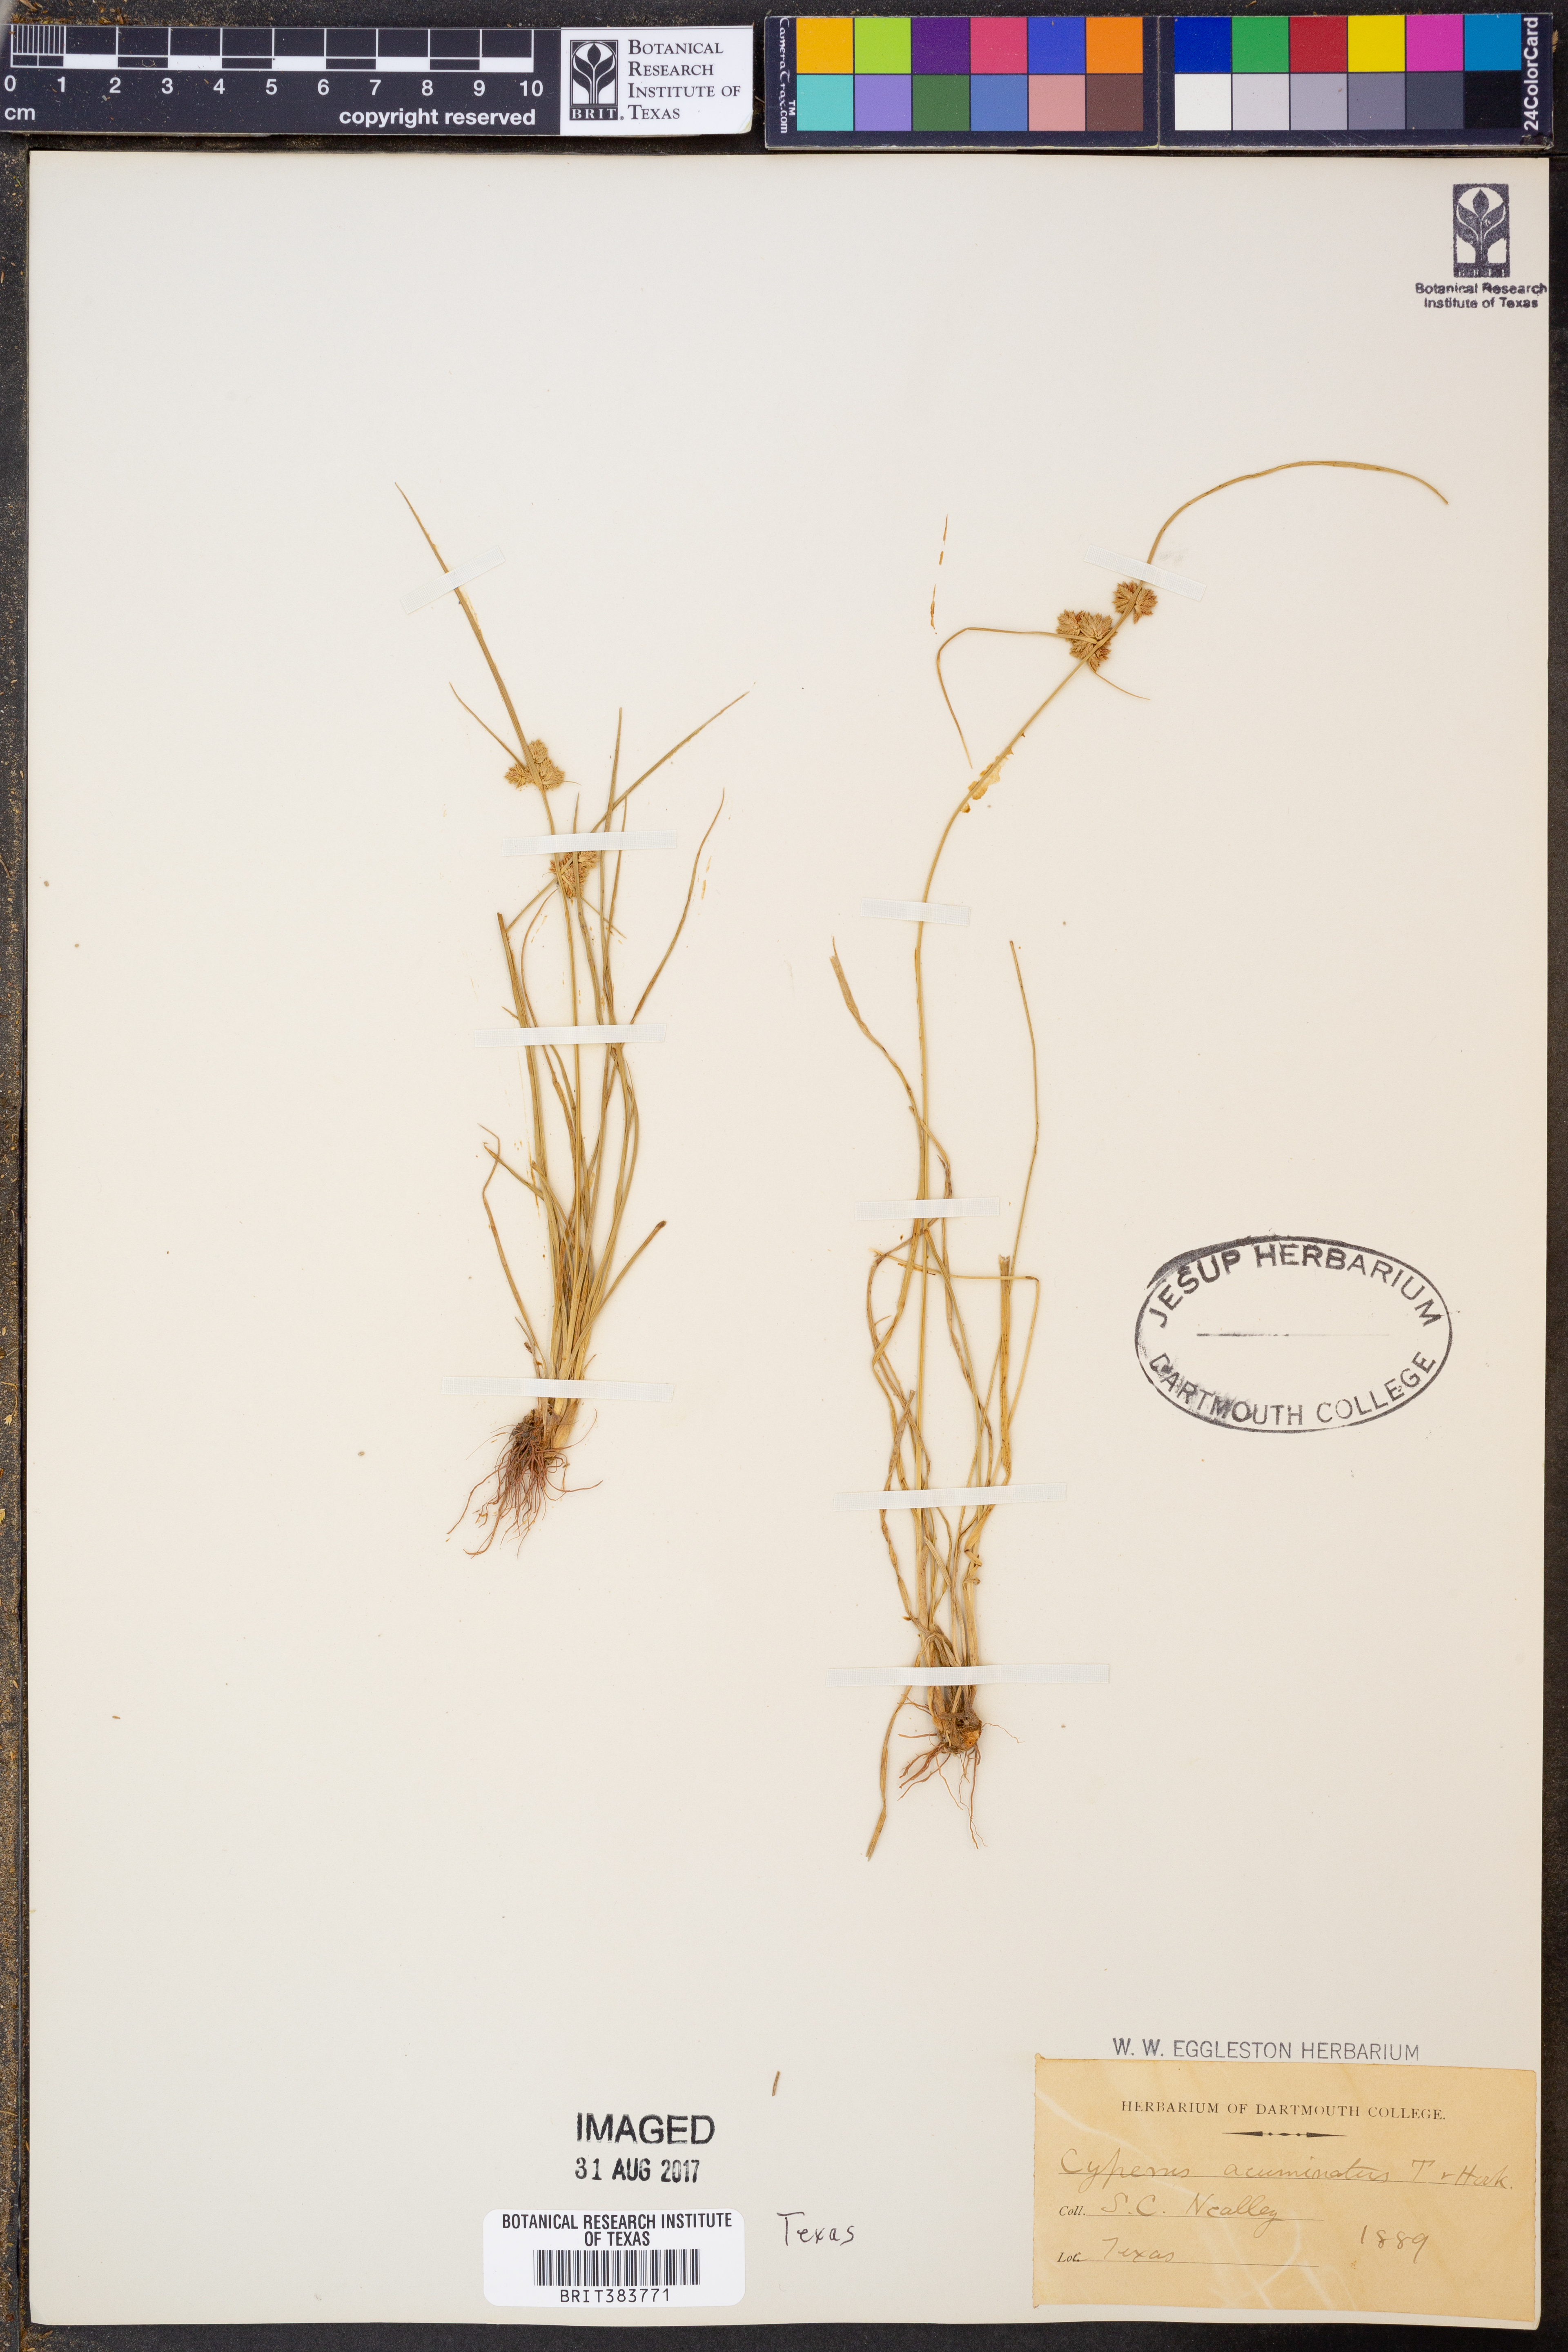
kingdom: Plantae
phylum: Tracheophyta
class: Liliopsida
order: Poales
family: Cyperaceae
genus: Cyperus
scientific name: Cyperus acuminatus
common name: Short-pointed cyperus
